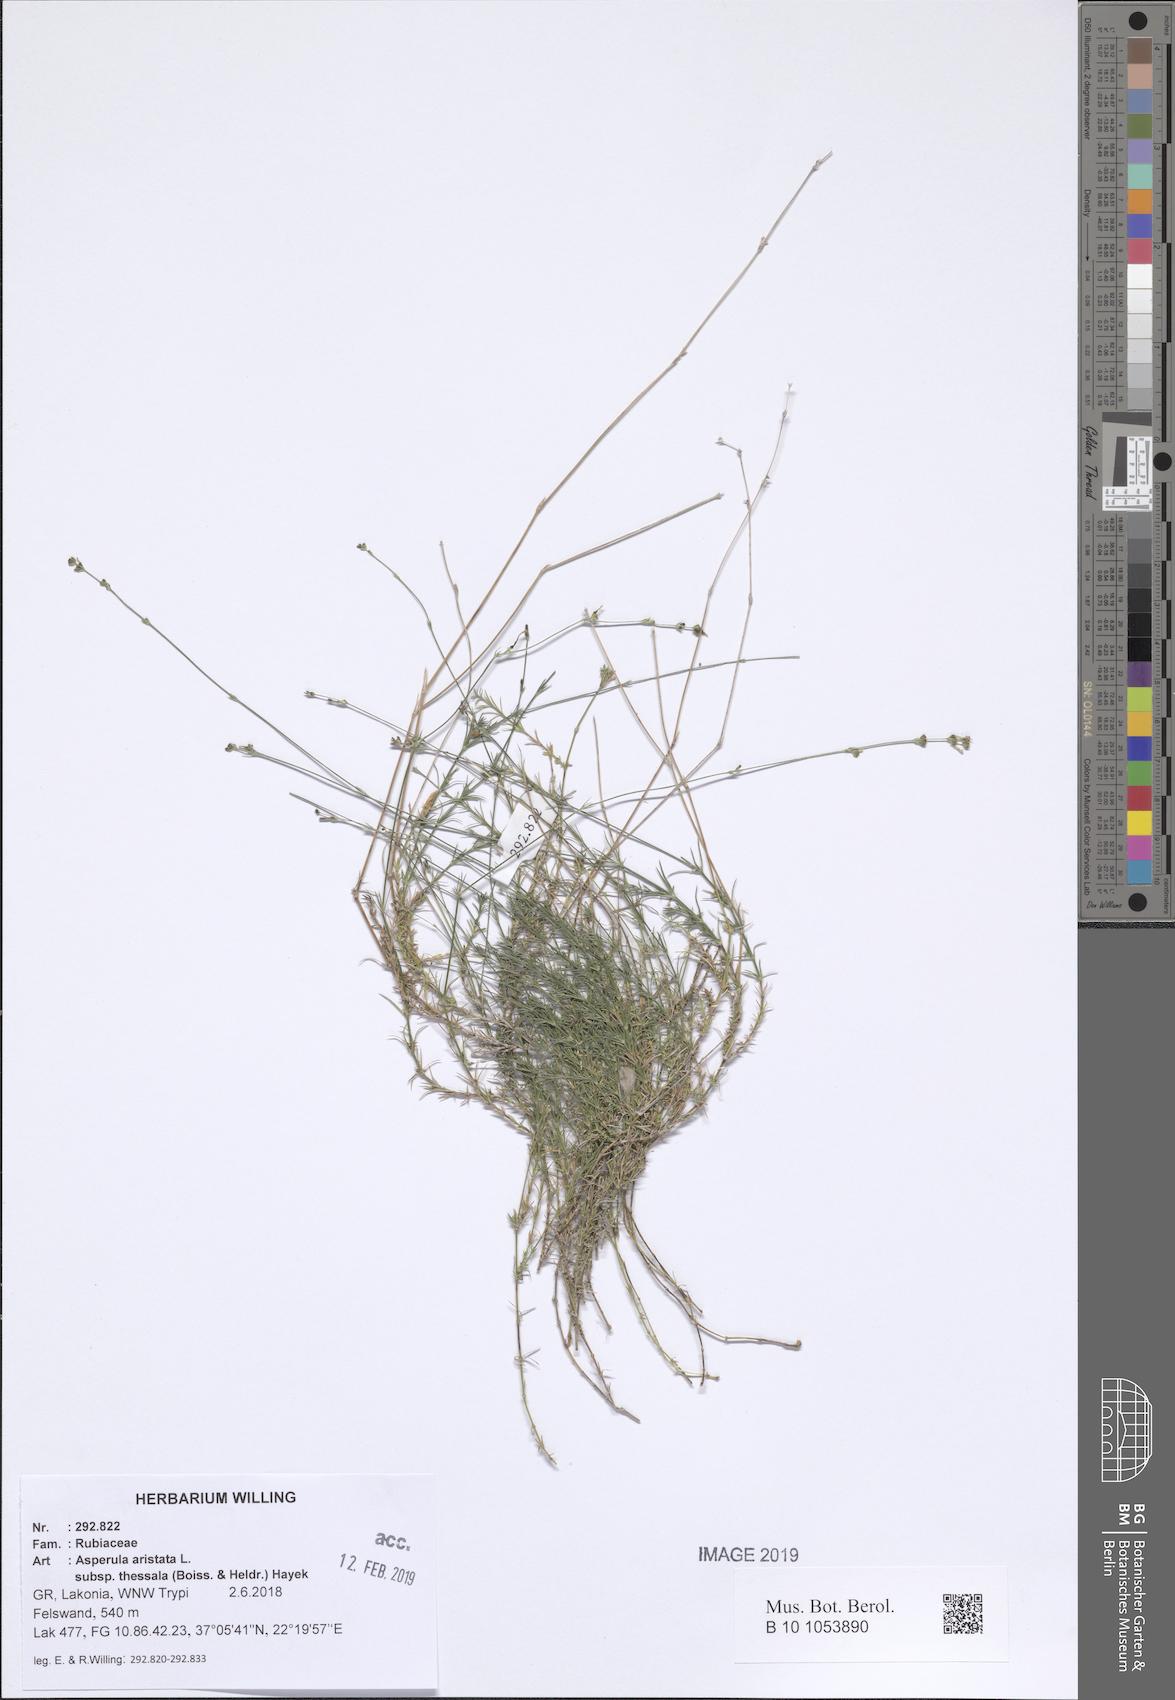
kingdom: Plantae
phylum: Tracheophyta
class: Magnoliopsida
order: Gentianales
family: Rubiaceae
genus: Cynanchica
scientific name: Cynanchica aristata
